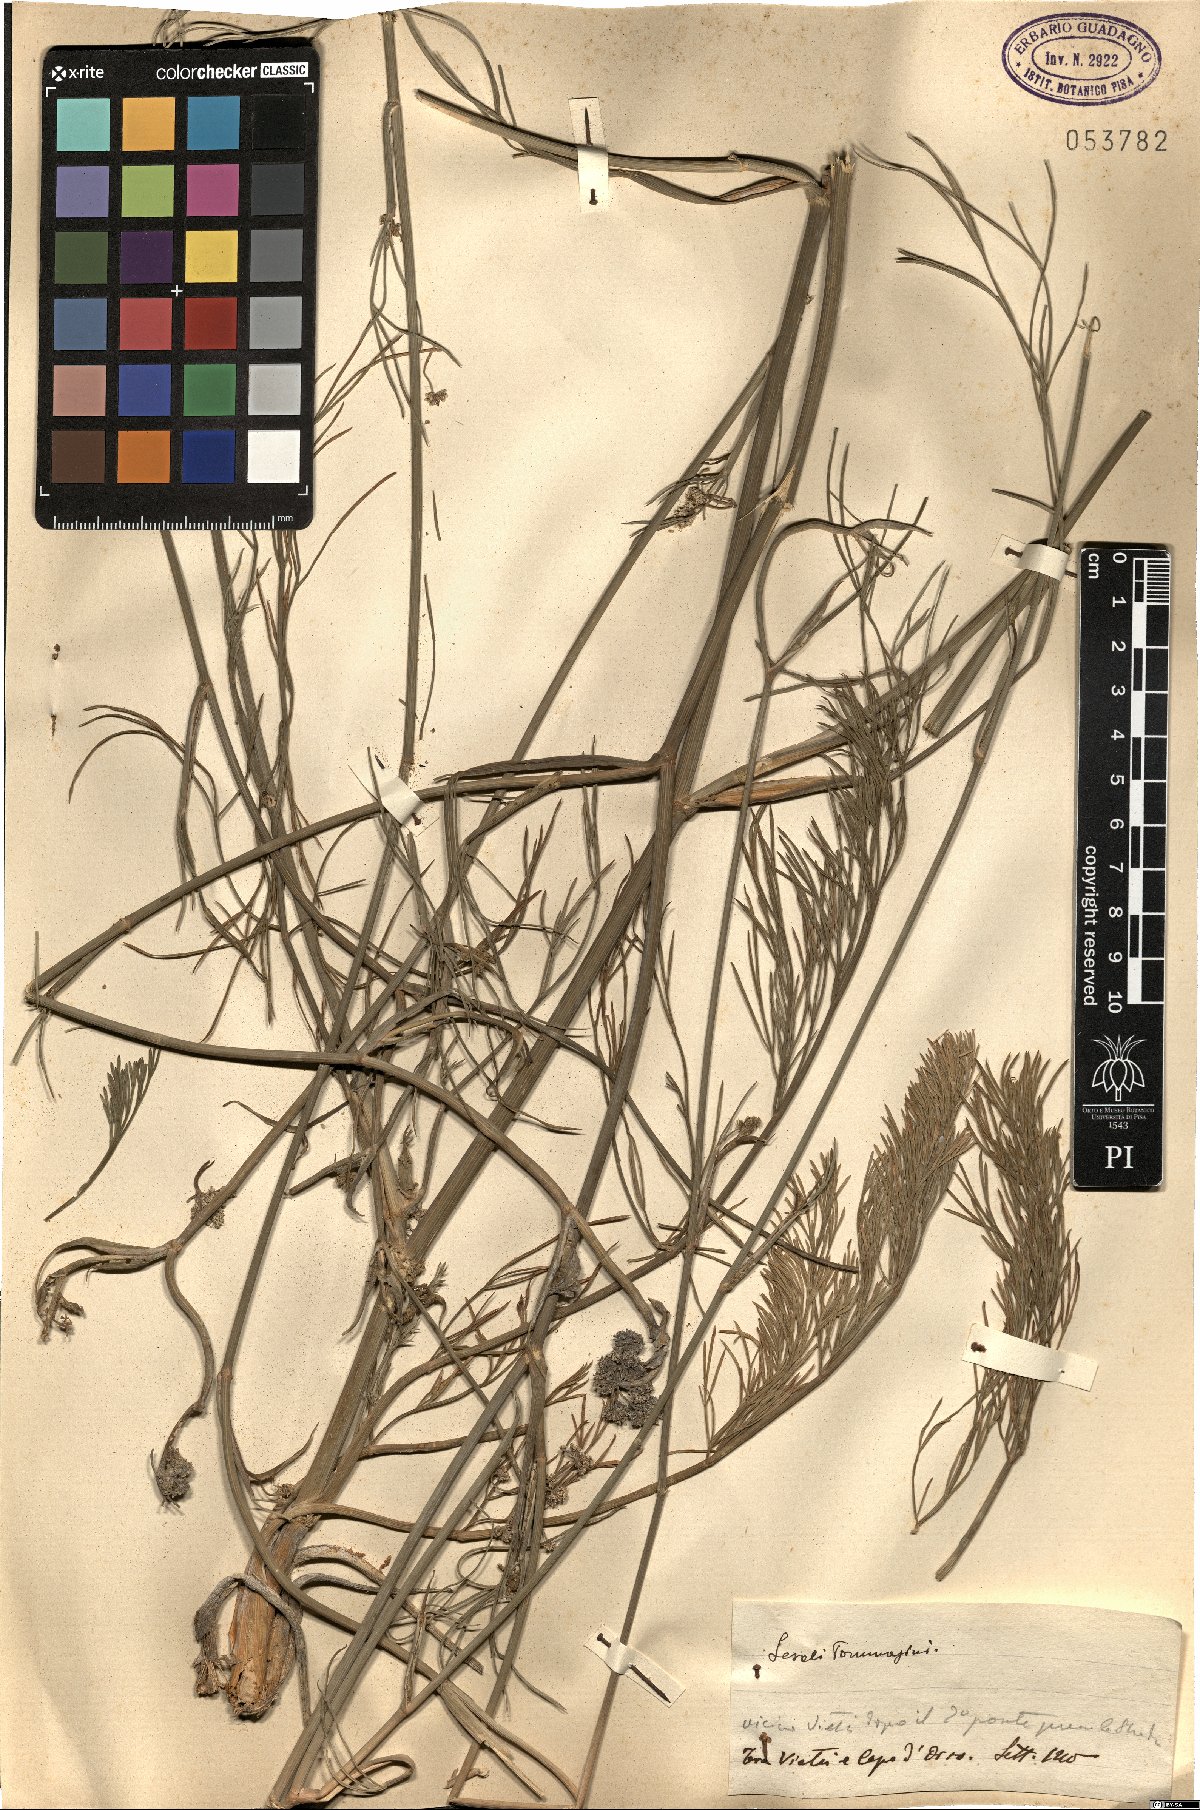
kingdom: Plantae
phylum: Tracheophyta
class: Magnoliopsida
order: Apiales
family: Apiaceae
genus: Seseli
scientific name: Seseli montanum
